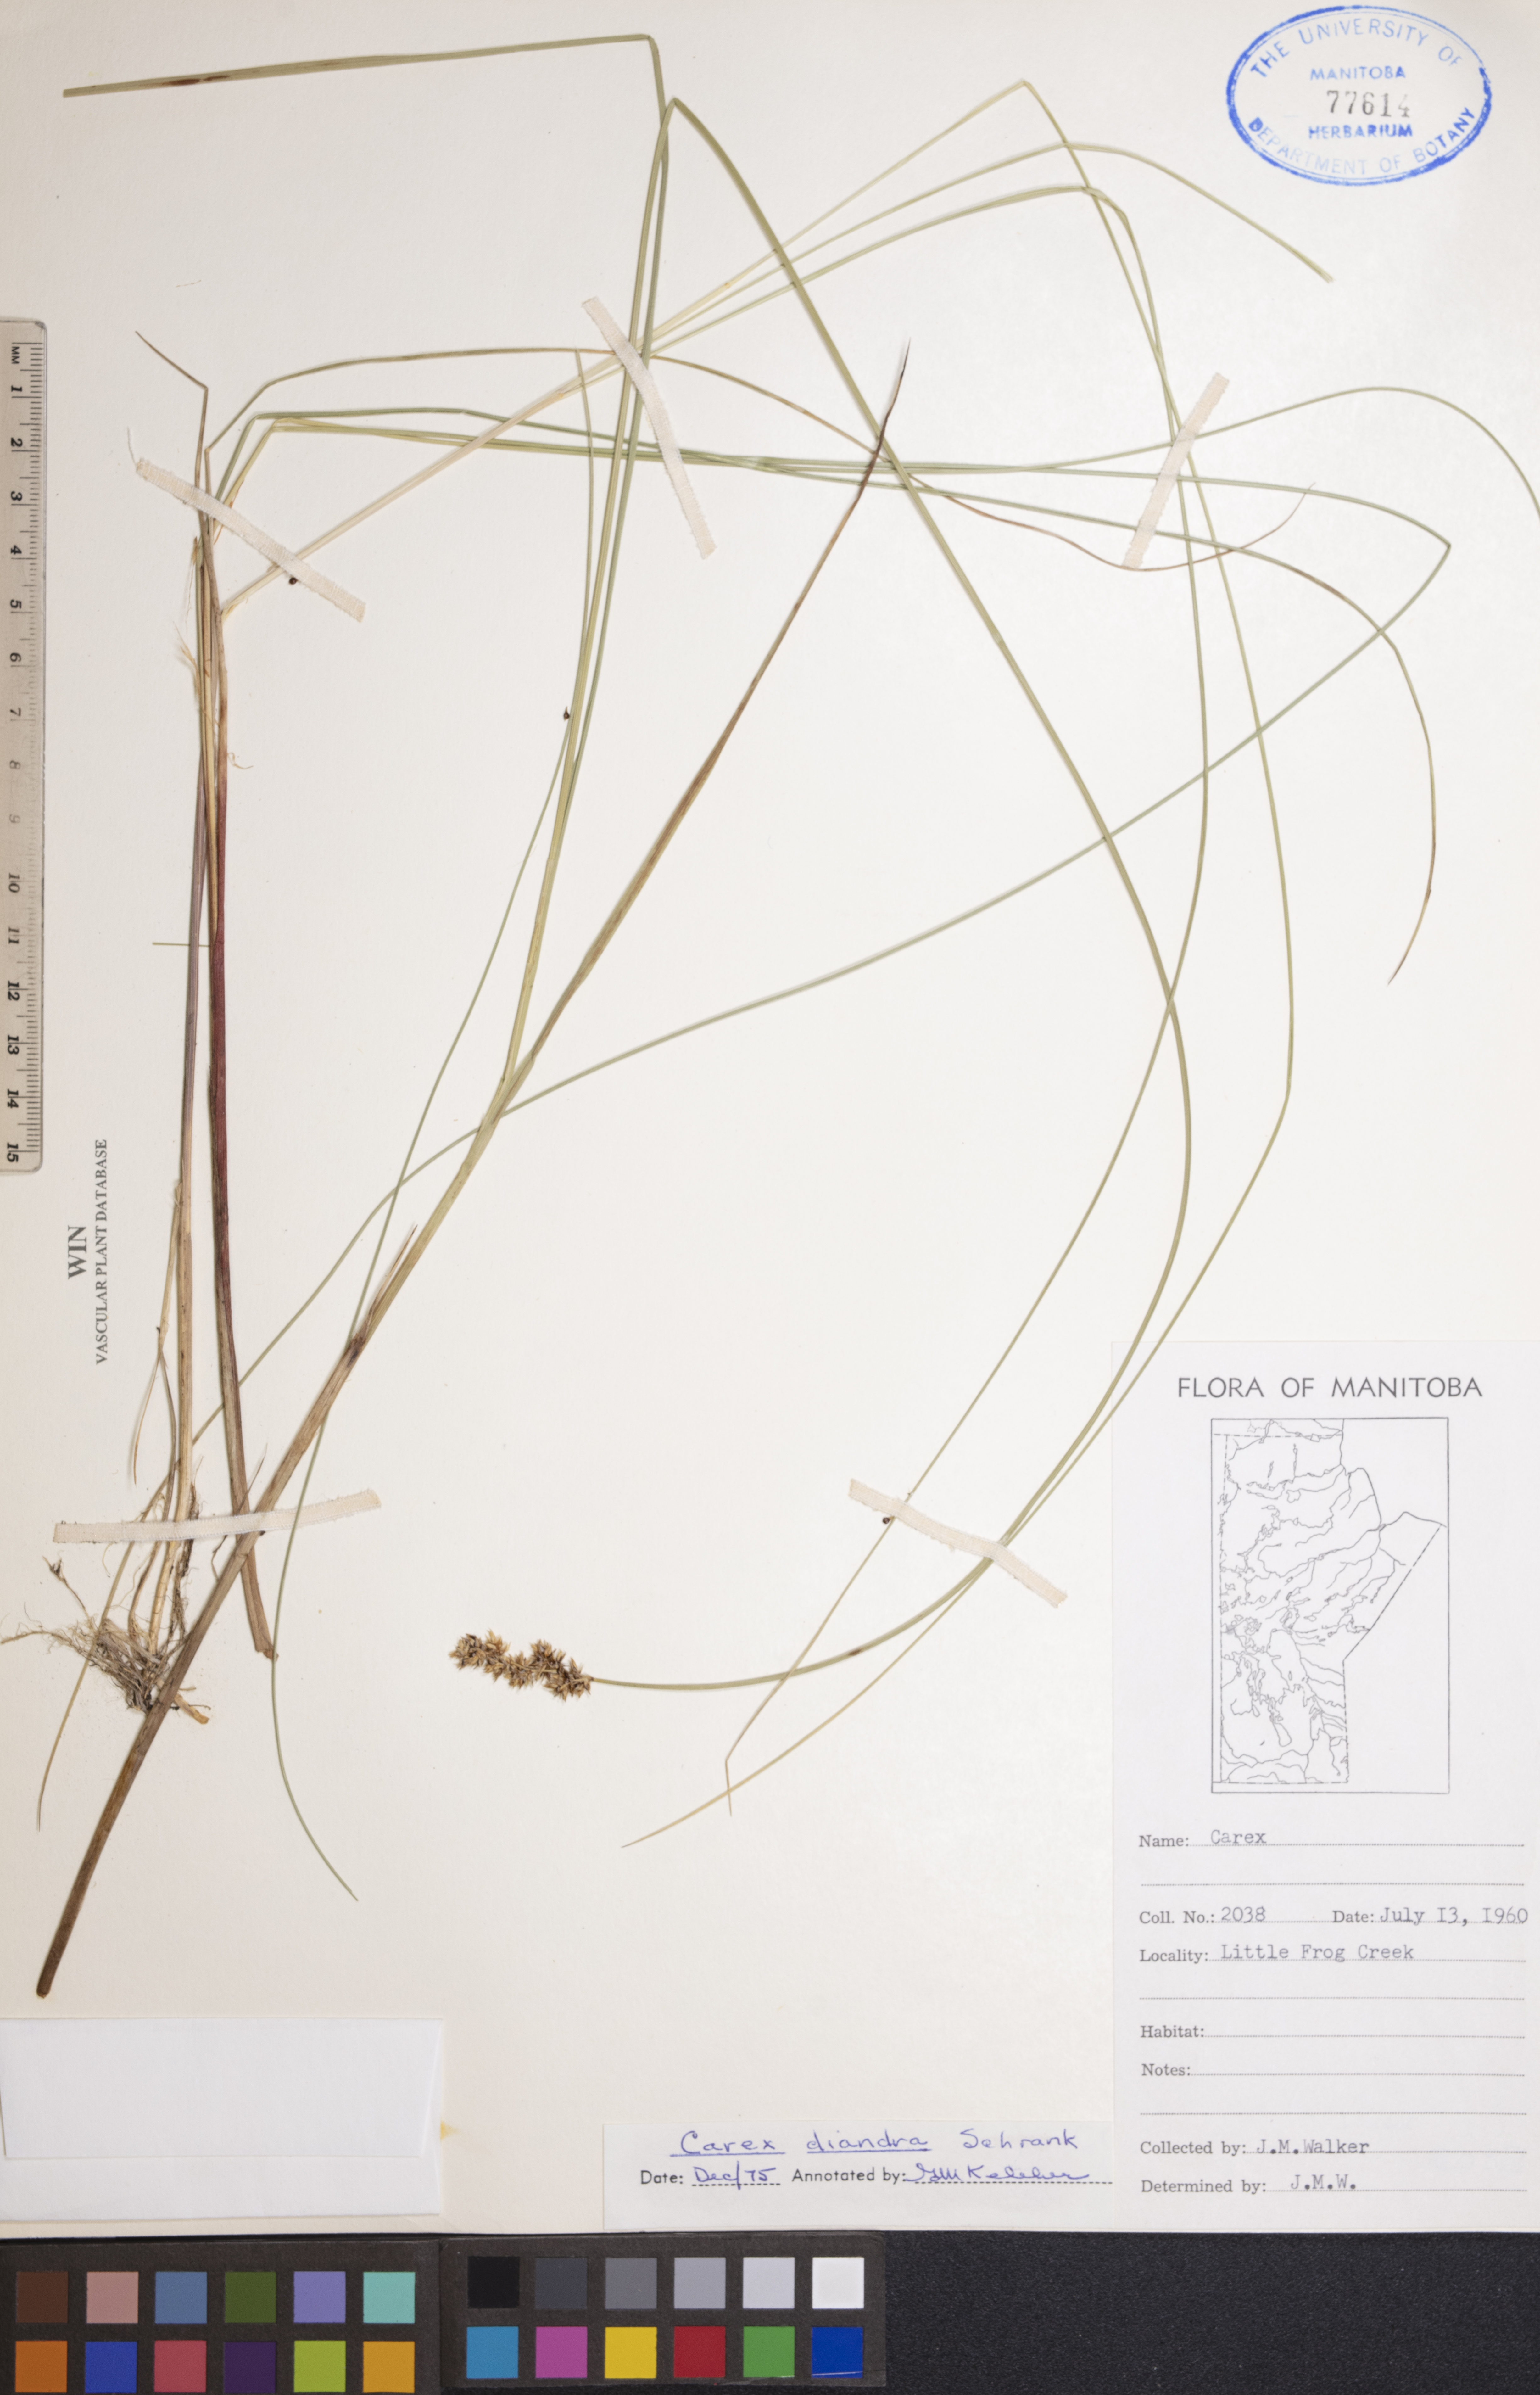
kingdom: Plantae
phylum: Tracheophyta
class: Liliopsida
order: Poales
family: Cyperaceae
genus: Carex
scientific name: Carex diandra
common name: Lesser tussock-sedge
